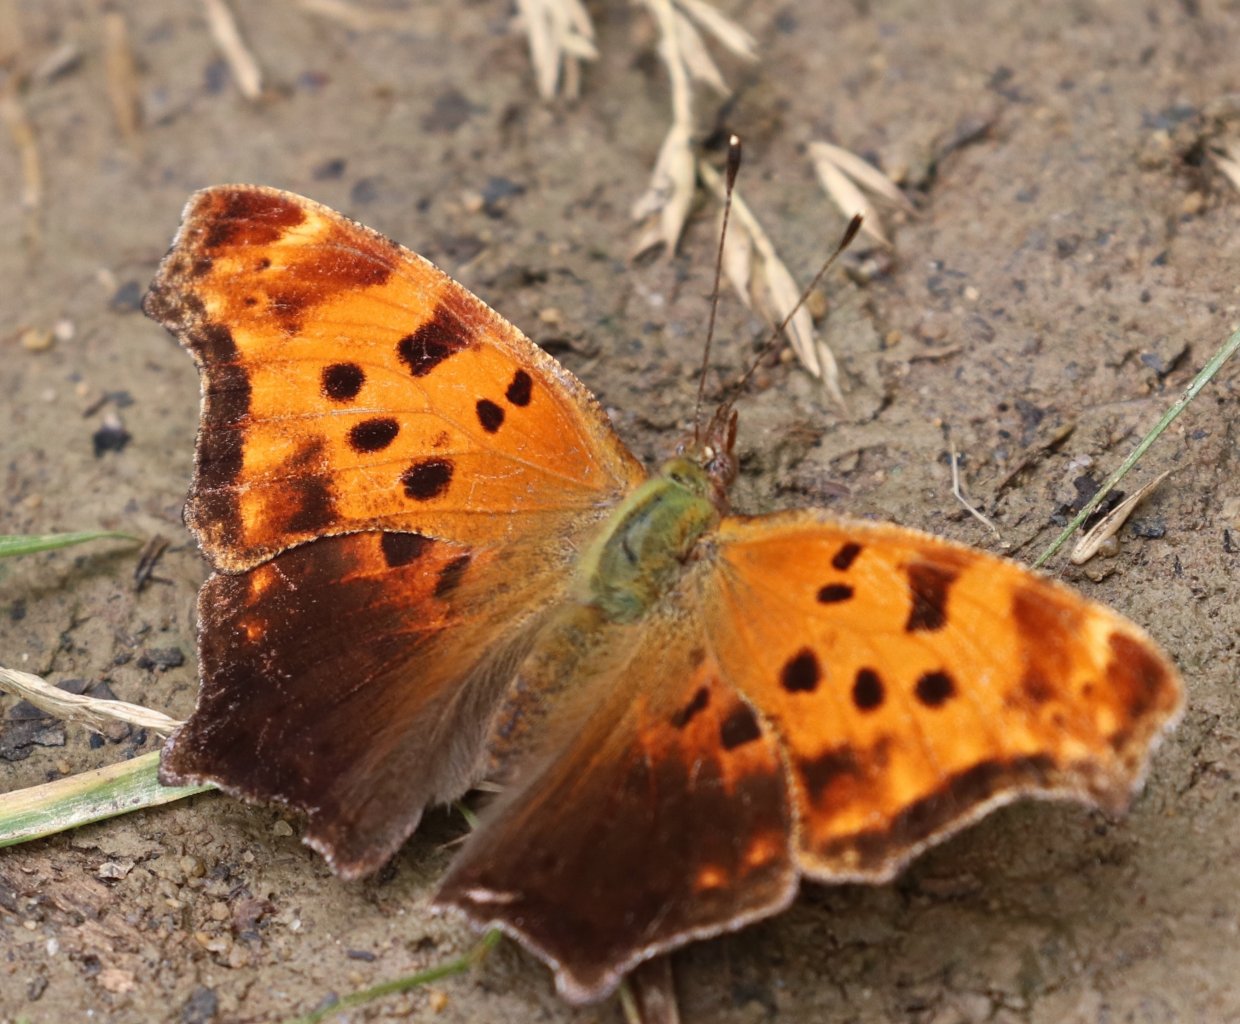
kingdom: Animalia
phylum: Arthropoda
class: Insecta
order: Lepidoptera
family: Nymphalidae
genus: Polygonia
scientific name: Polygonia comma
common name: Eastern Comma
